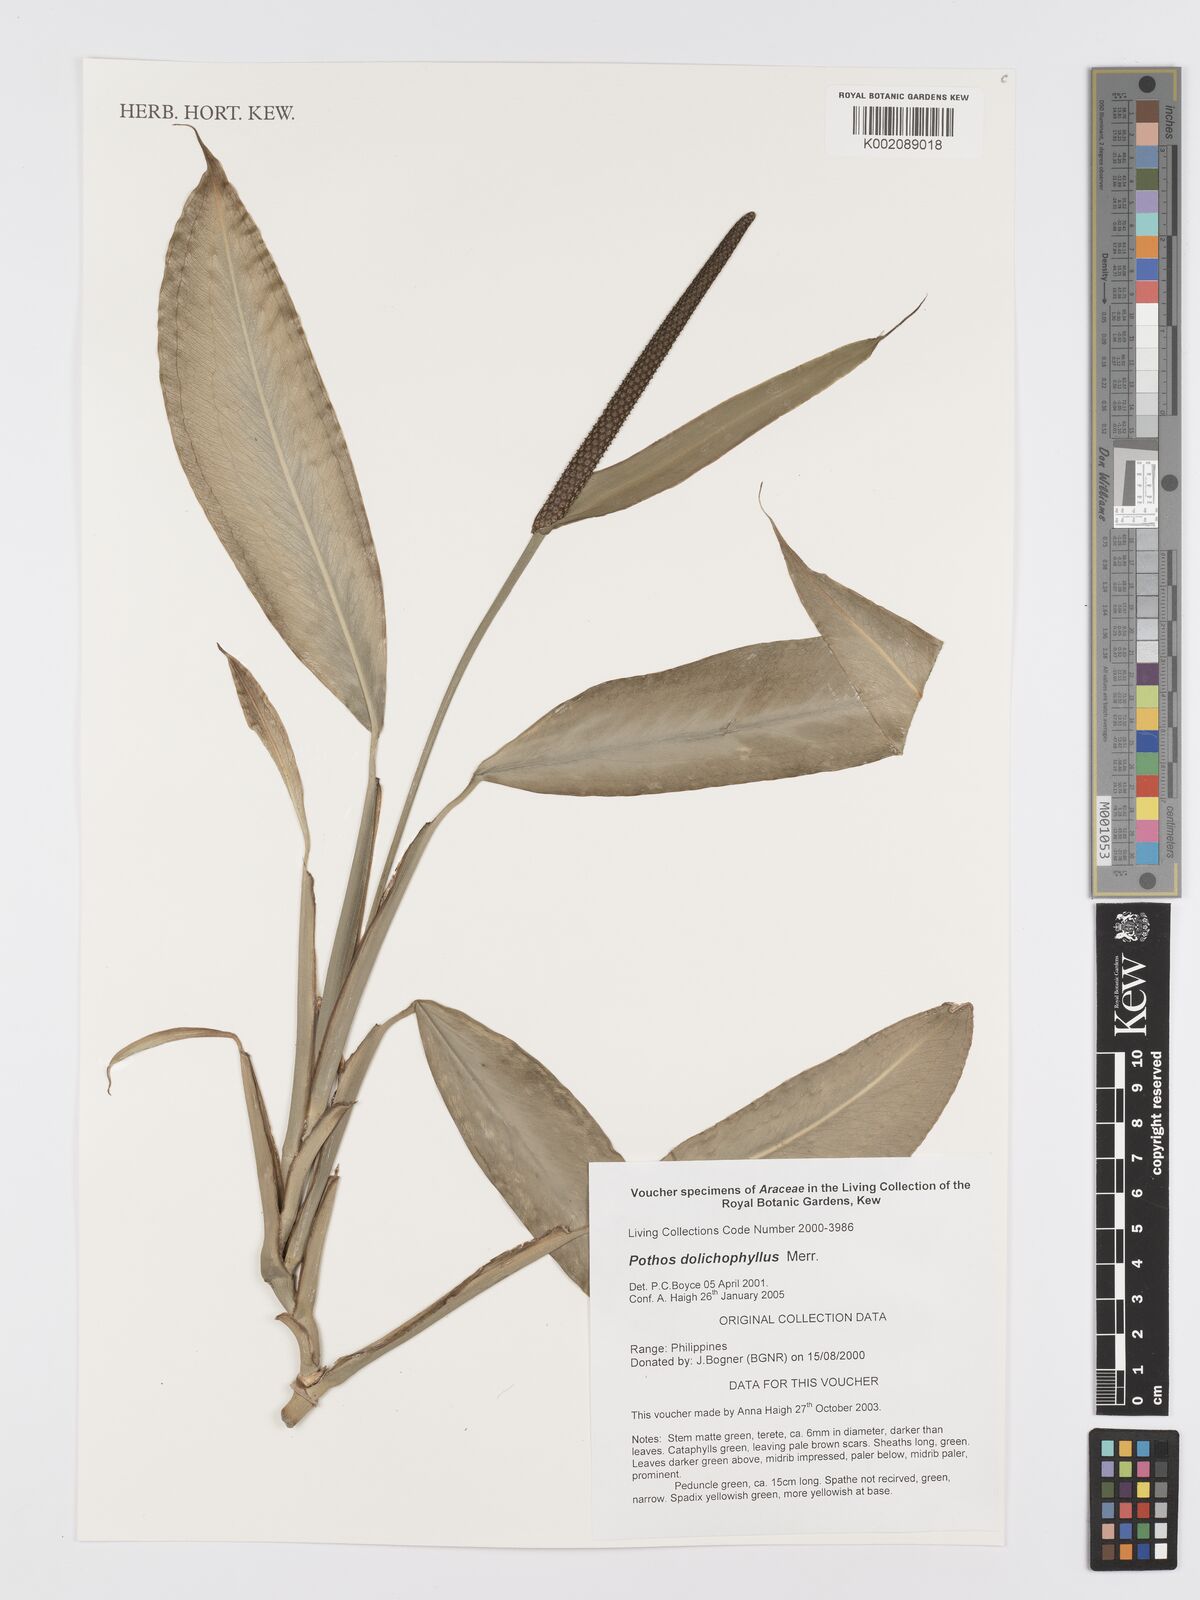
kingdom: Plantae
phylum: Tracheophyta
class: Liliopsida
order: Alismatales
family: Araceae
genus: Pothos
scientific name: Pothos dolichophyllus
